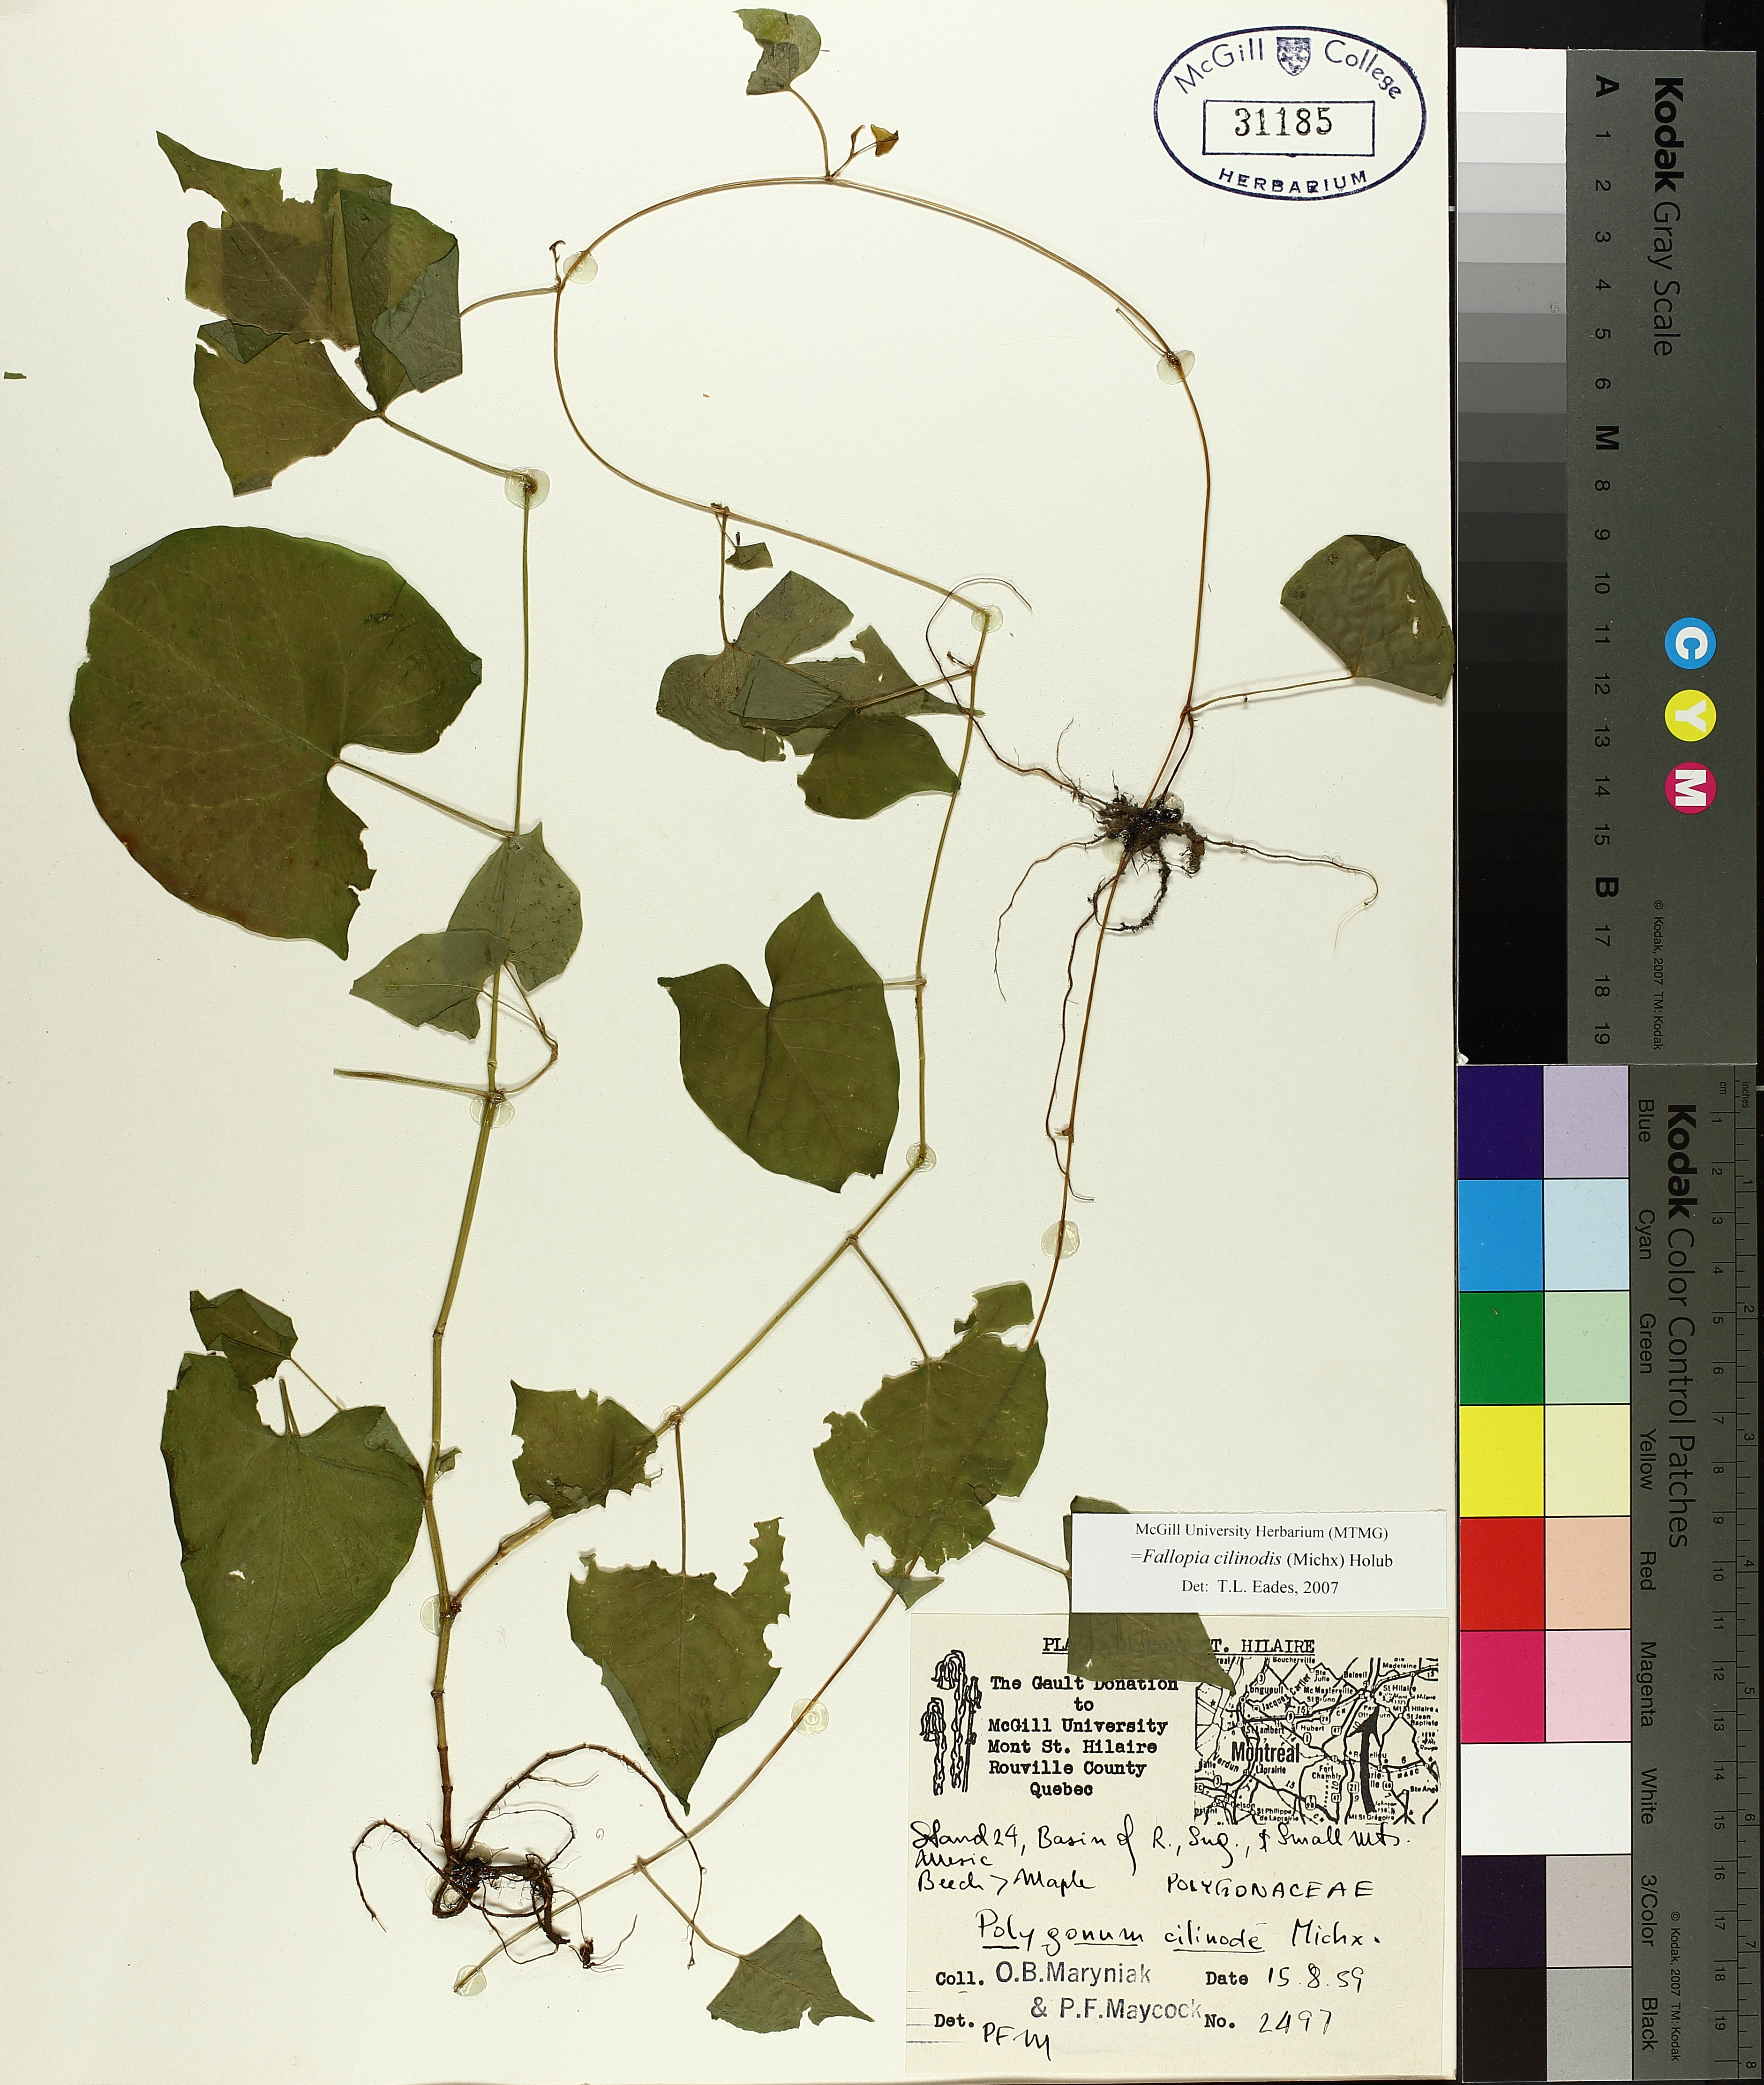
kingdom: Plantae
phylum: Tracheophyta
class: Magnoliopsida
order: Caryophyllales
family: Polygonaceae
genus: Parogonum
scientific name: Parogonum ciliinode
